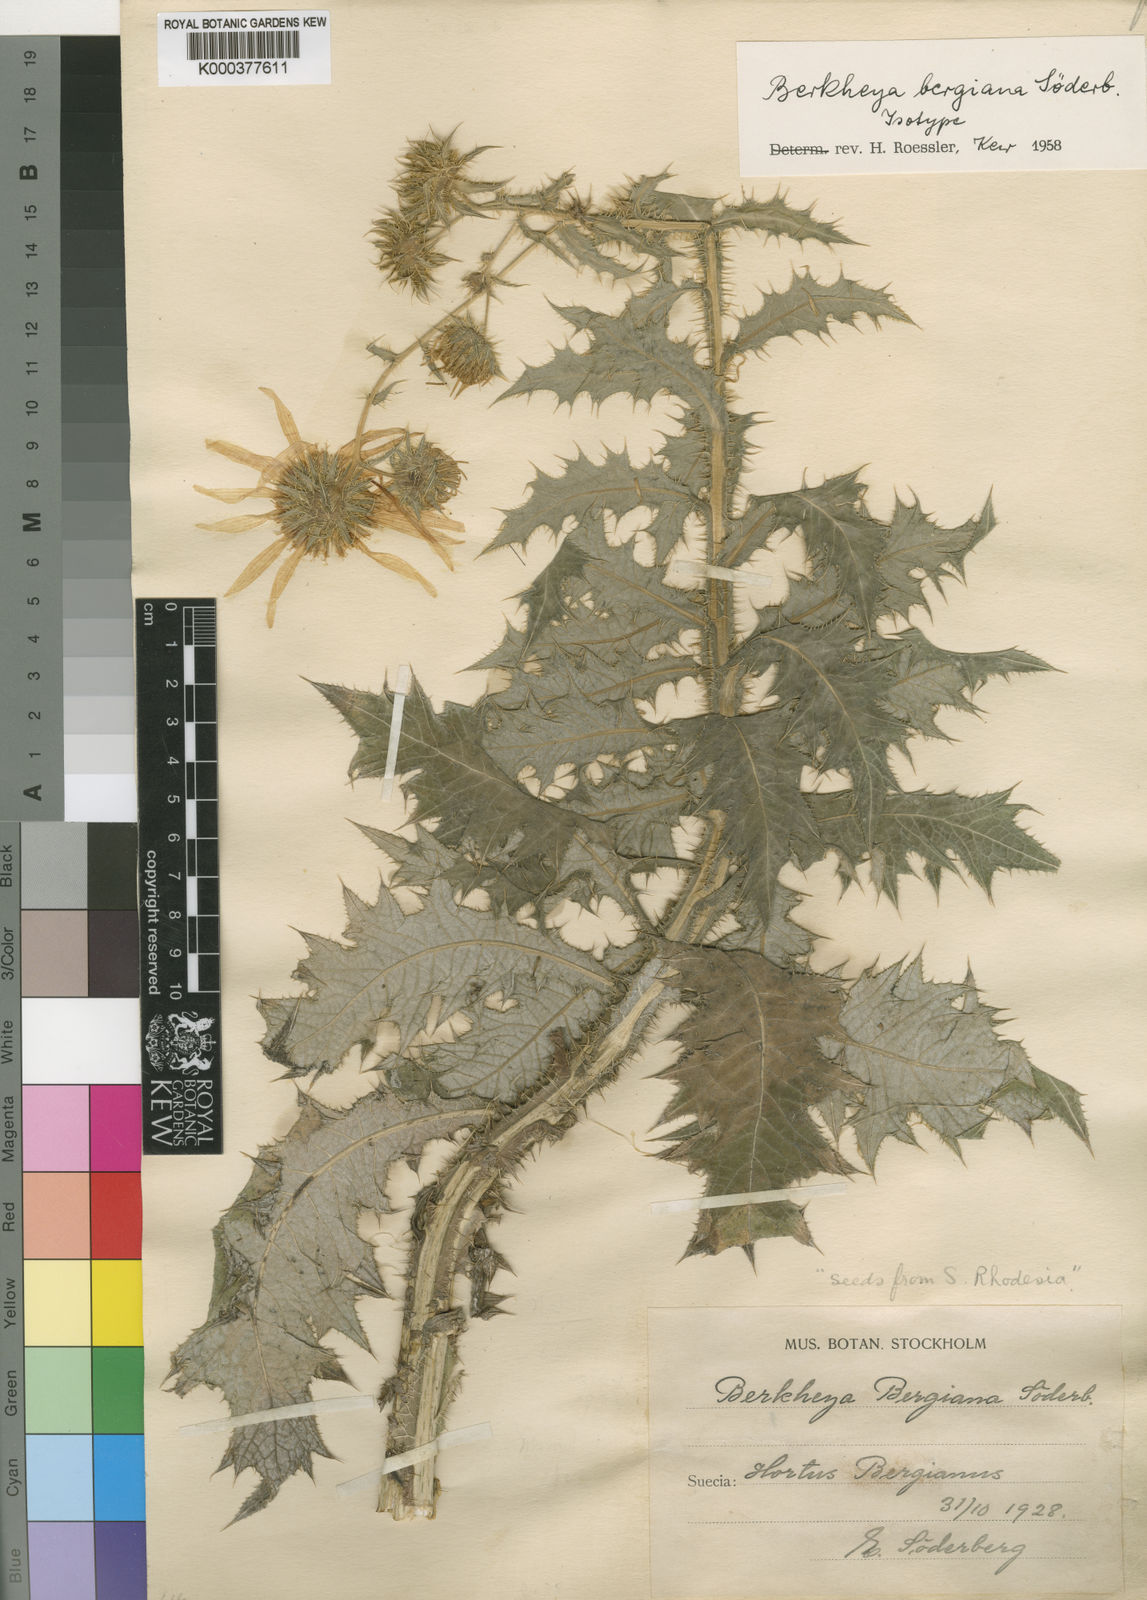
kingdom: Plantae
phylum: Tracheophyta
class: Magnoliopsida
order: Asterales
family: Asteraceae
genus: Berkheya
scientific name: Berkheya
